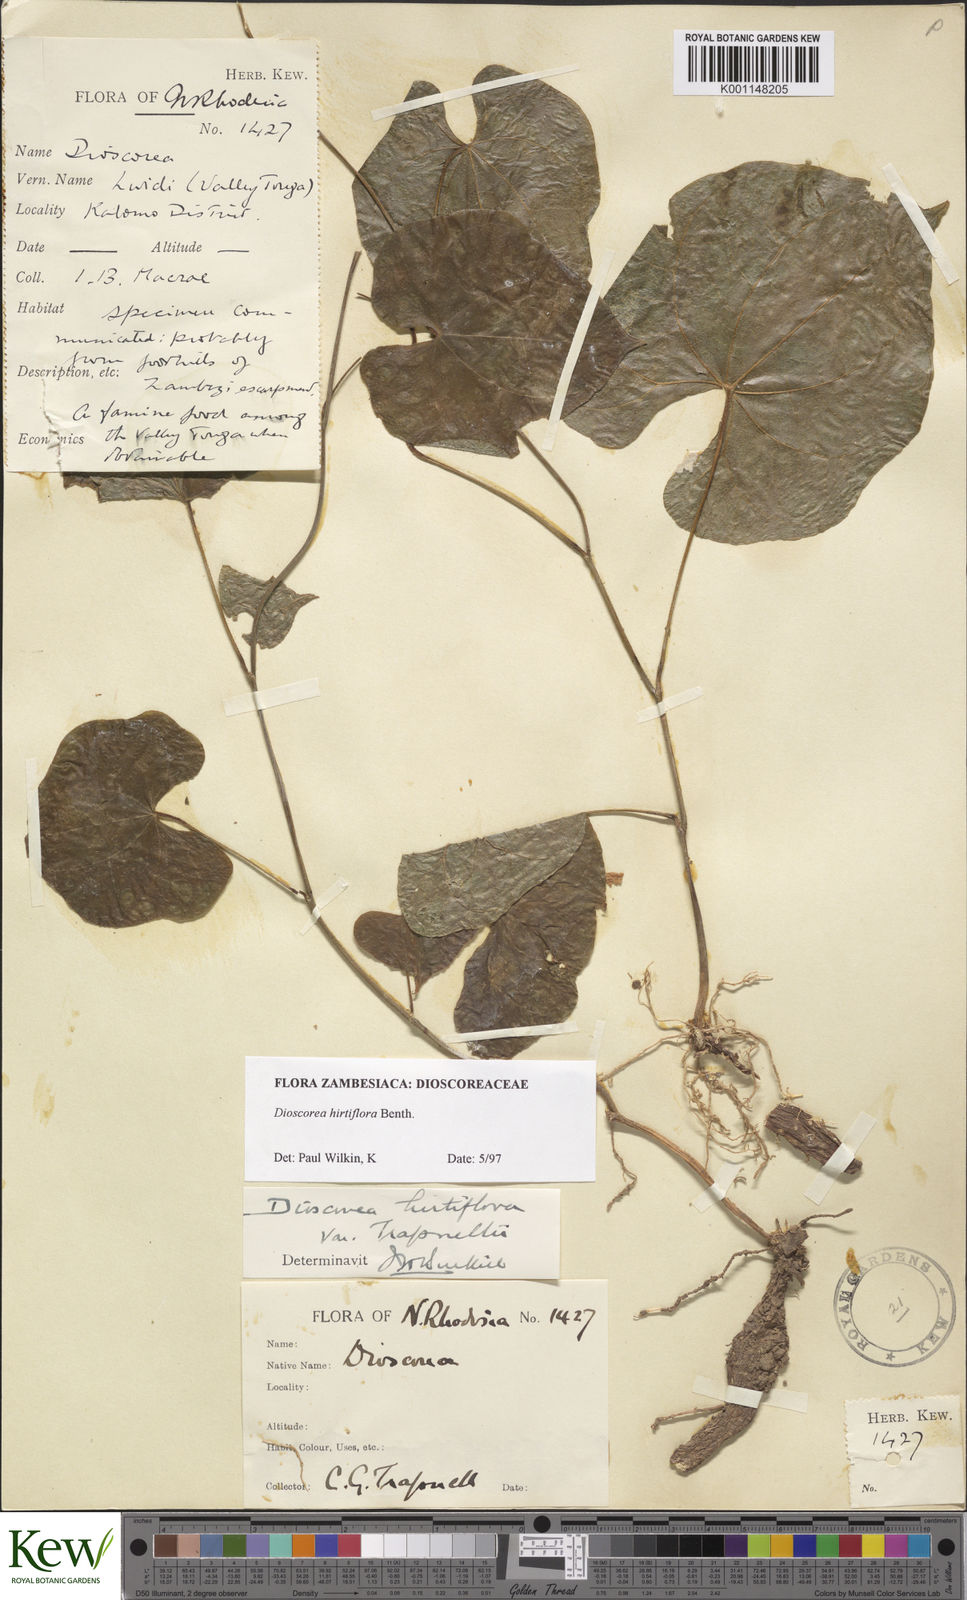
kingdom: Plantae
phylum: Tracheophyta
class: Liliopsida
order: Dioscoreales
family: Dioscoreaceae
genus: Dioscorea
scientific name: Dioscorea hirtiflora
